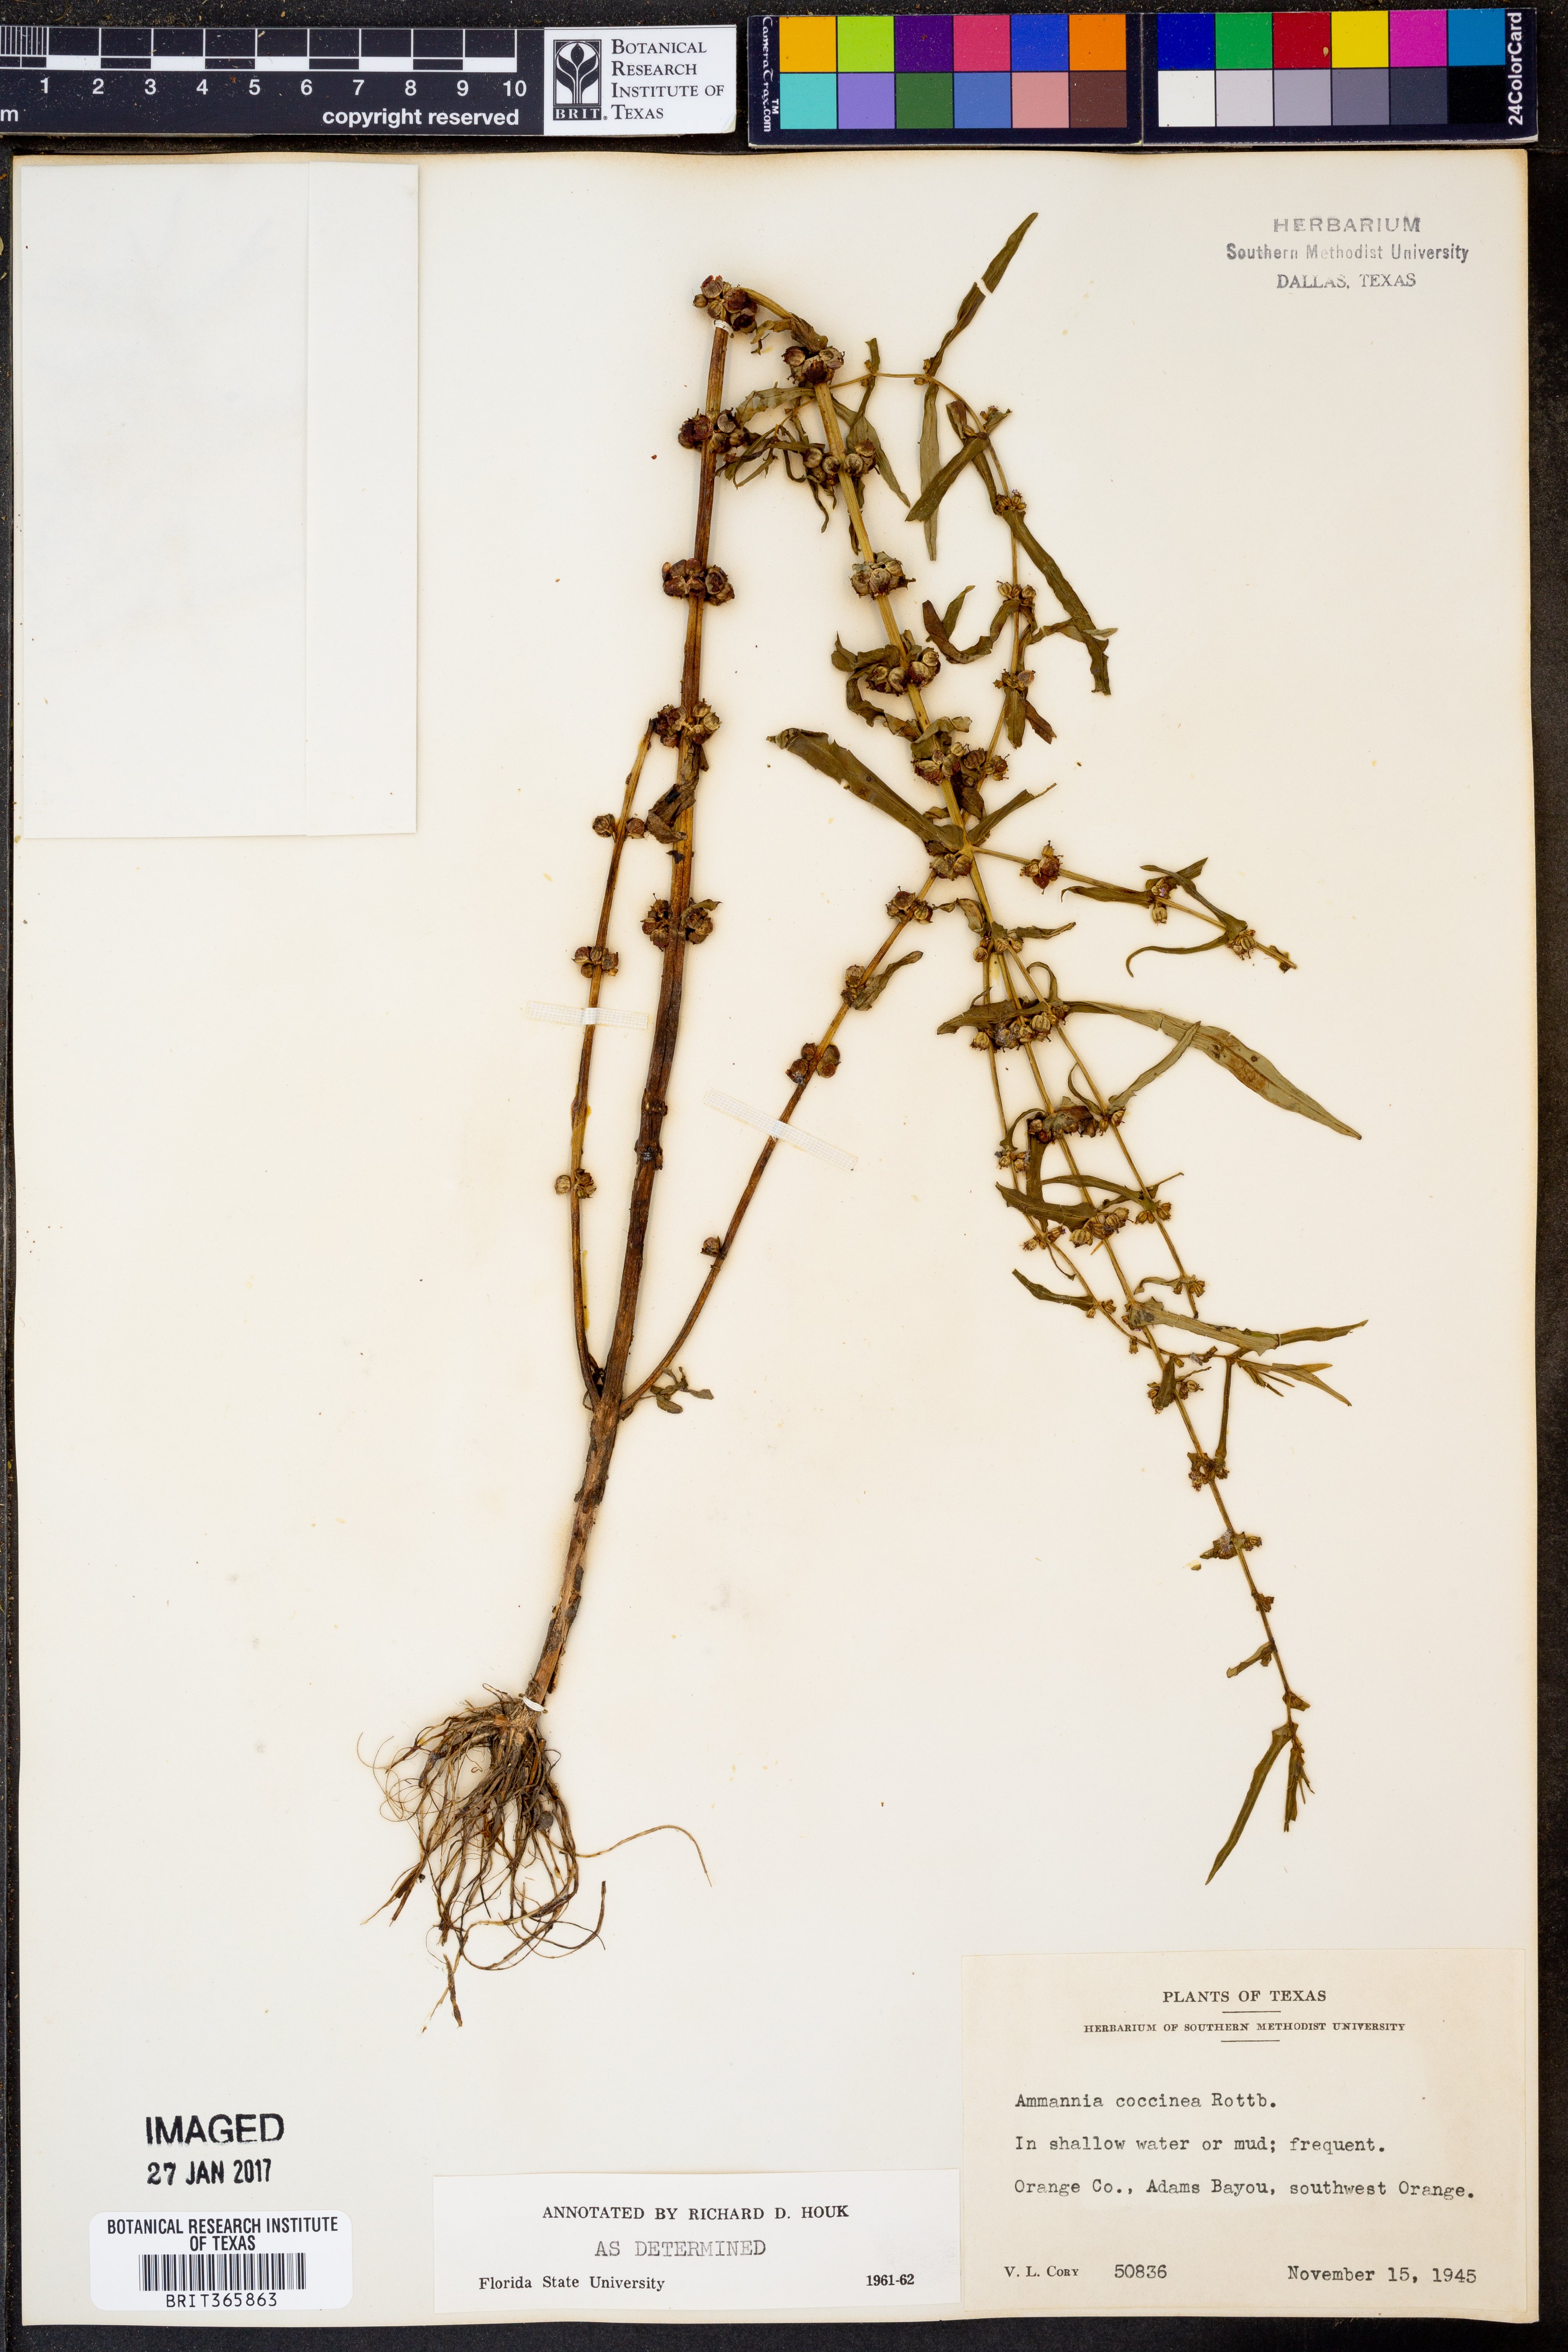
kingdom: Plantae
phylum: Tracheophyta
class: Magnoliopsida
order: Myrtales
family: Lythraceae
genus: Ammannia
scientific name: Ammannia coccinea
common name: Valley redstem
